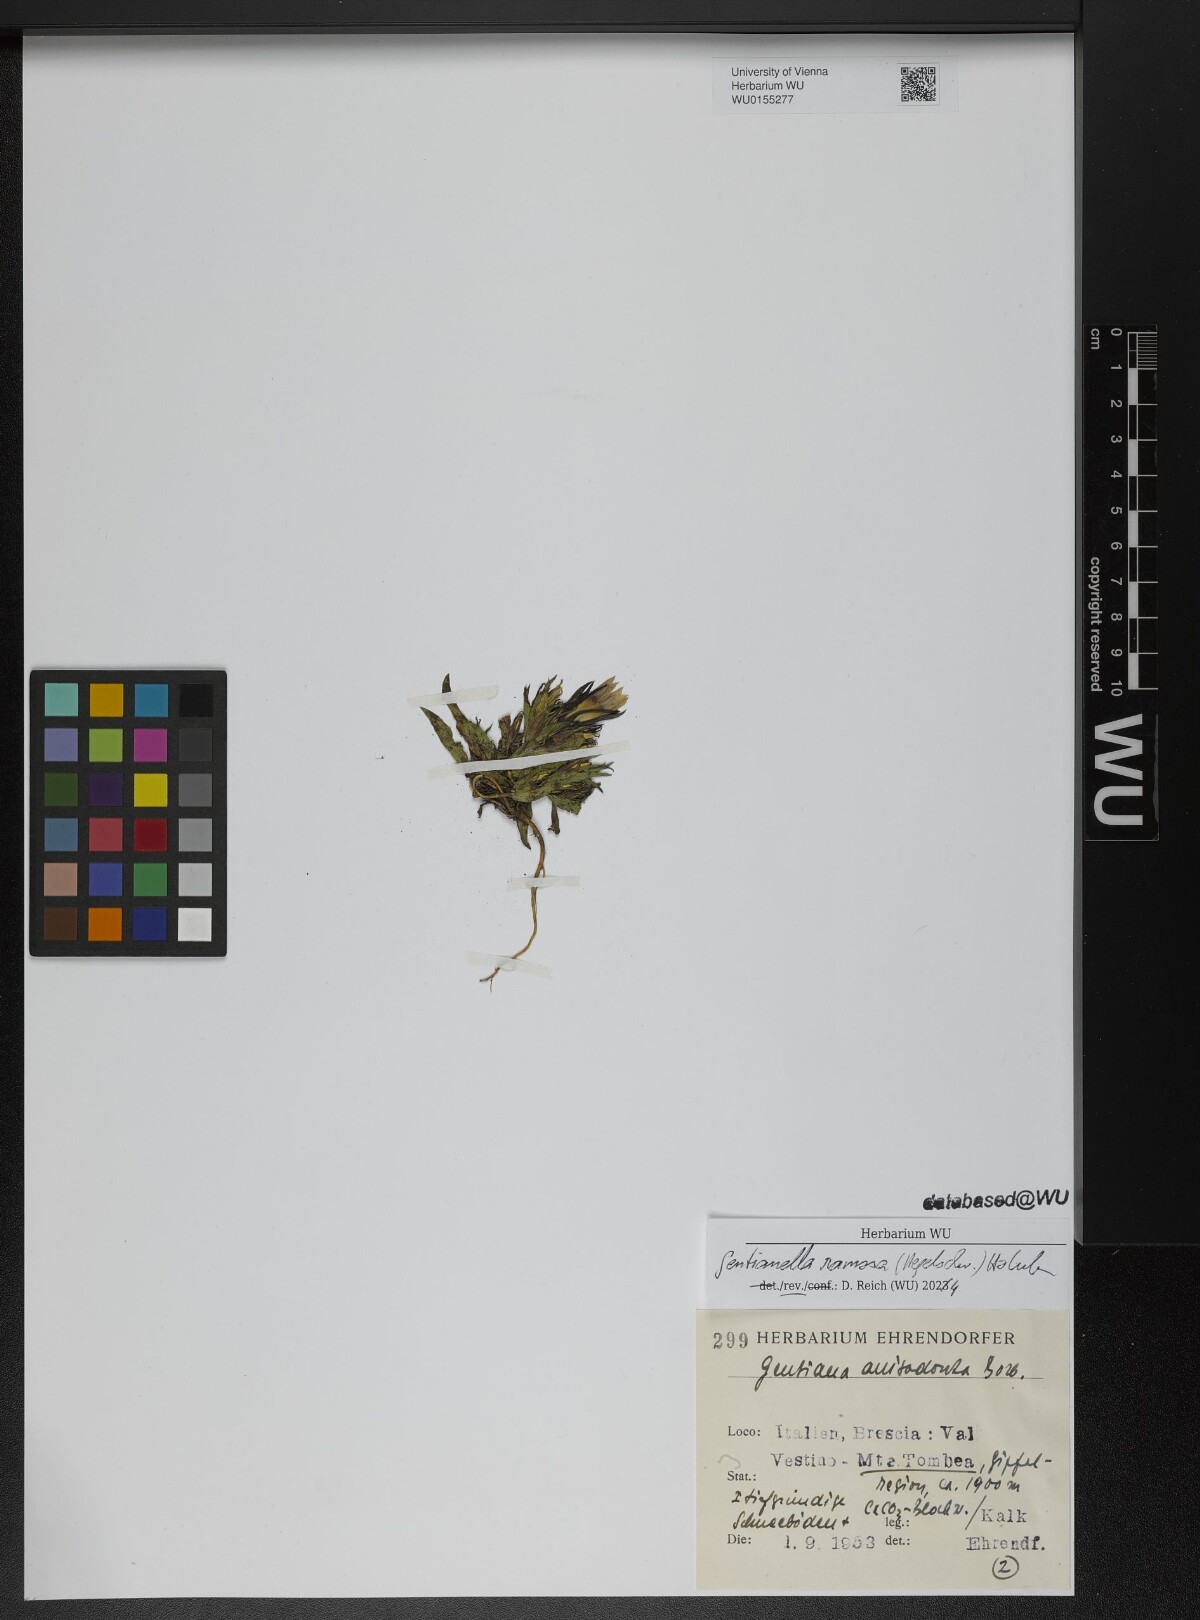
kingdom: Plantae
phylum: Tracheophyta
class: Magnoliopsida
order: Gentianales
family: Gentianaceae
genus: Gentianella
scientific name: Gentianella ramosa
